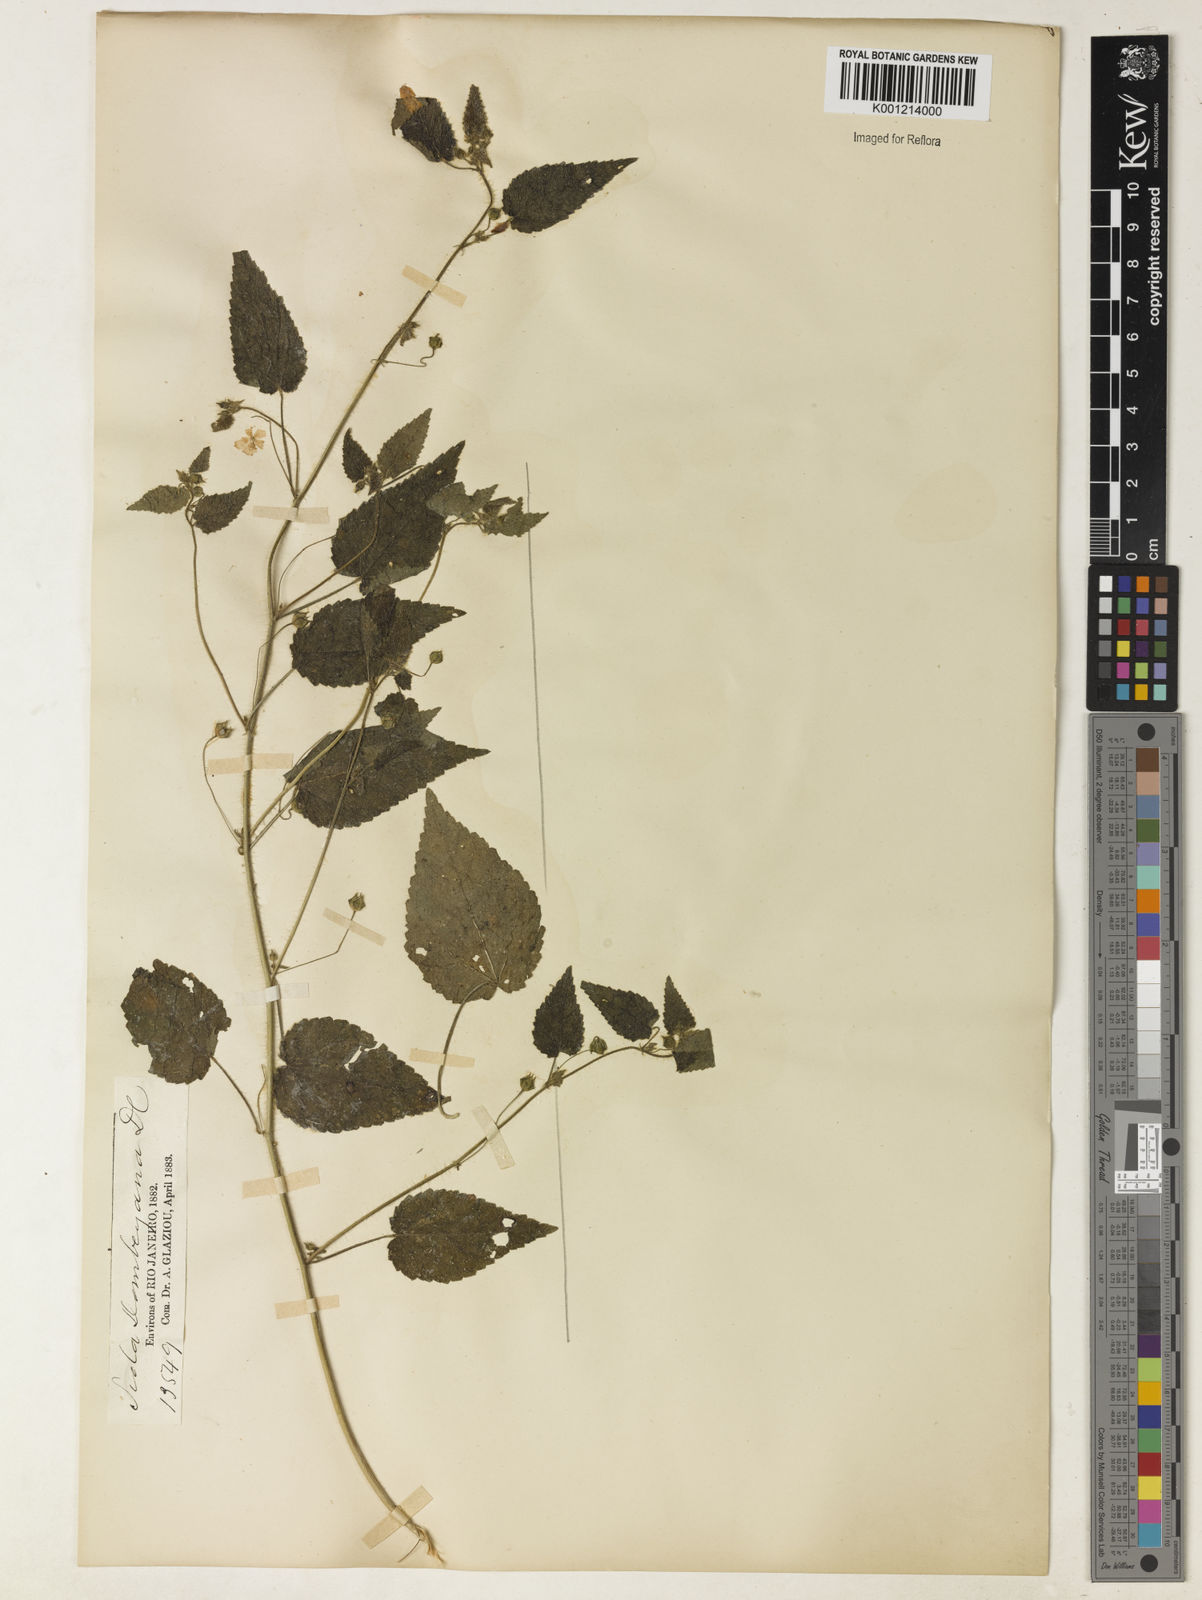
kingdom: Plantae
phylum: Tracheophyta
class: Magnoliopsida
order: Malvales
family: Malvaceae
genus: Sida
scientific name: Sida jussieana
